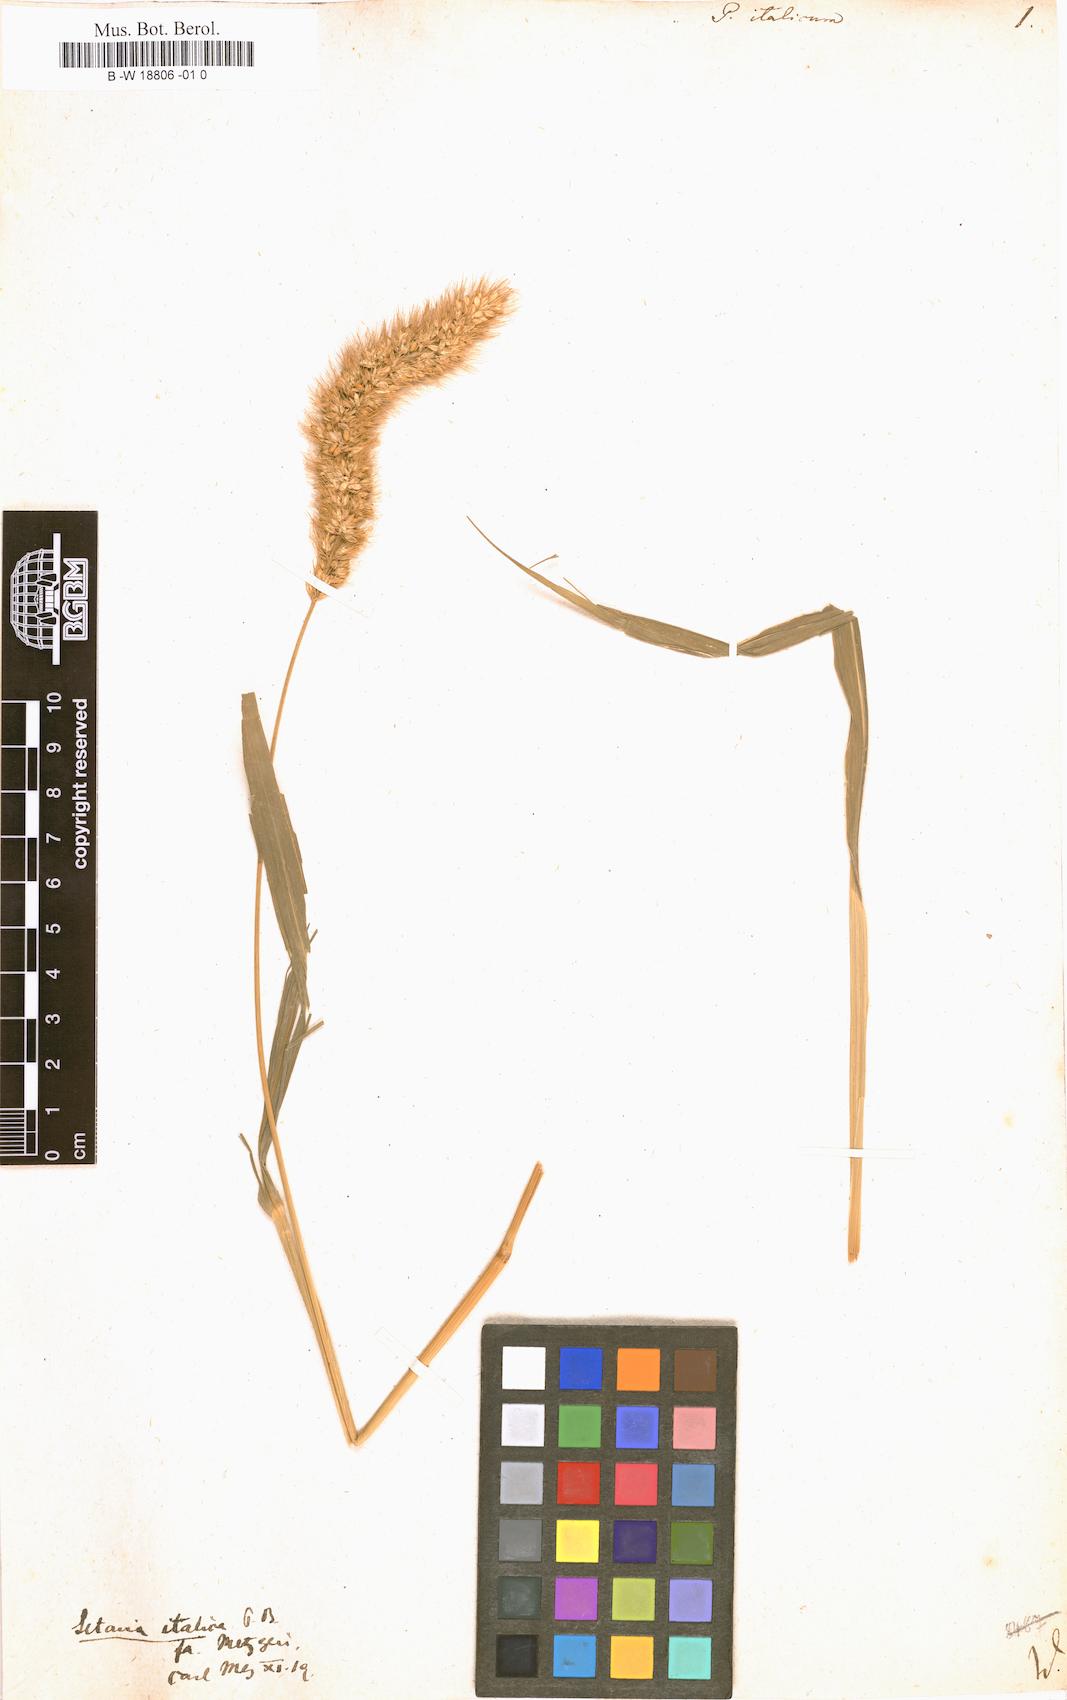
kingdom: Plantae
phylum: Tracheophyta
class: Liliopsida
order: Poales
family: Poaceae
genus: Setaria
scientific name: Setaria italica
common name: Foxtail bristle-grass
